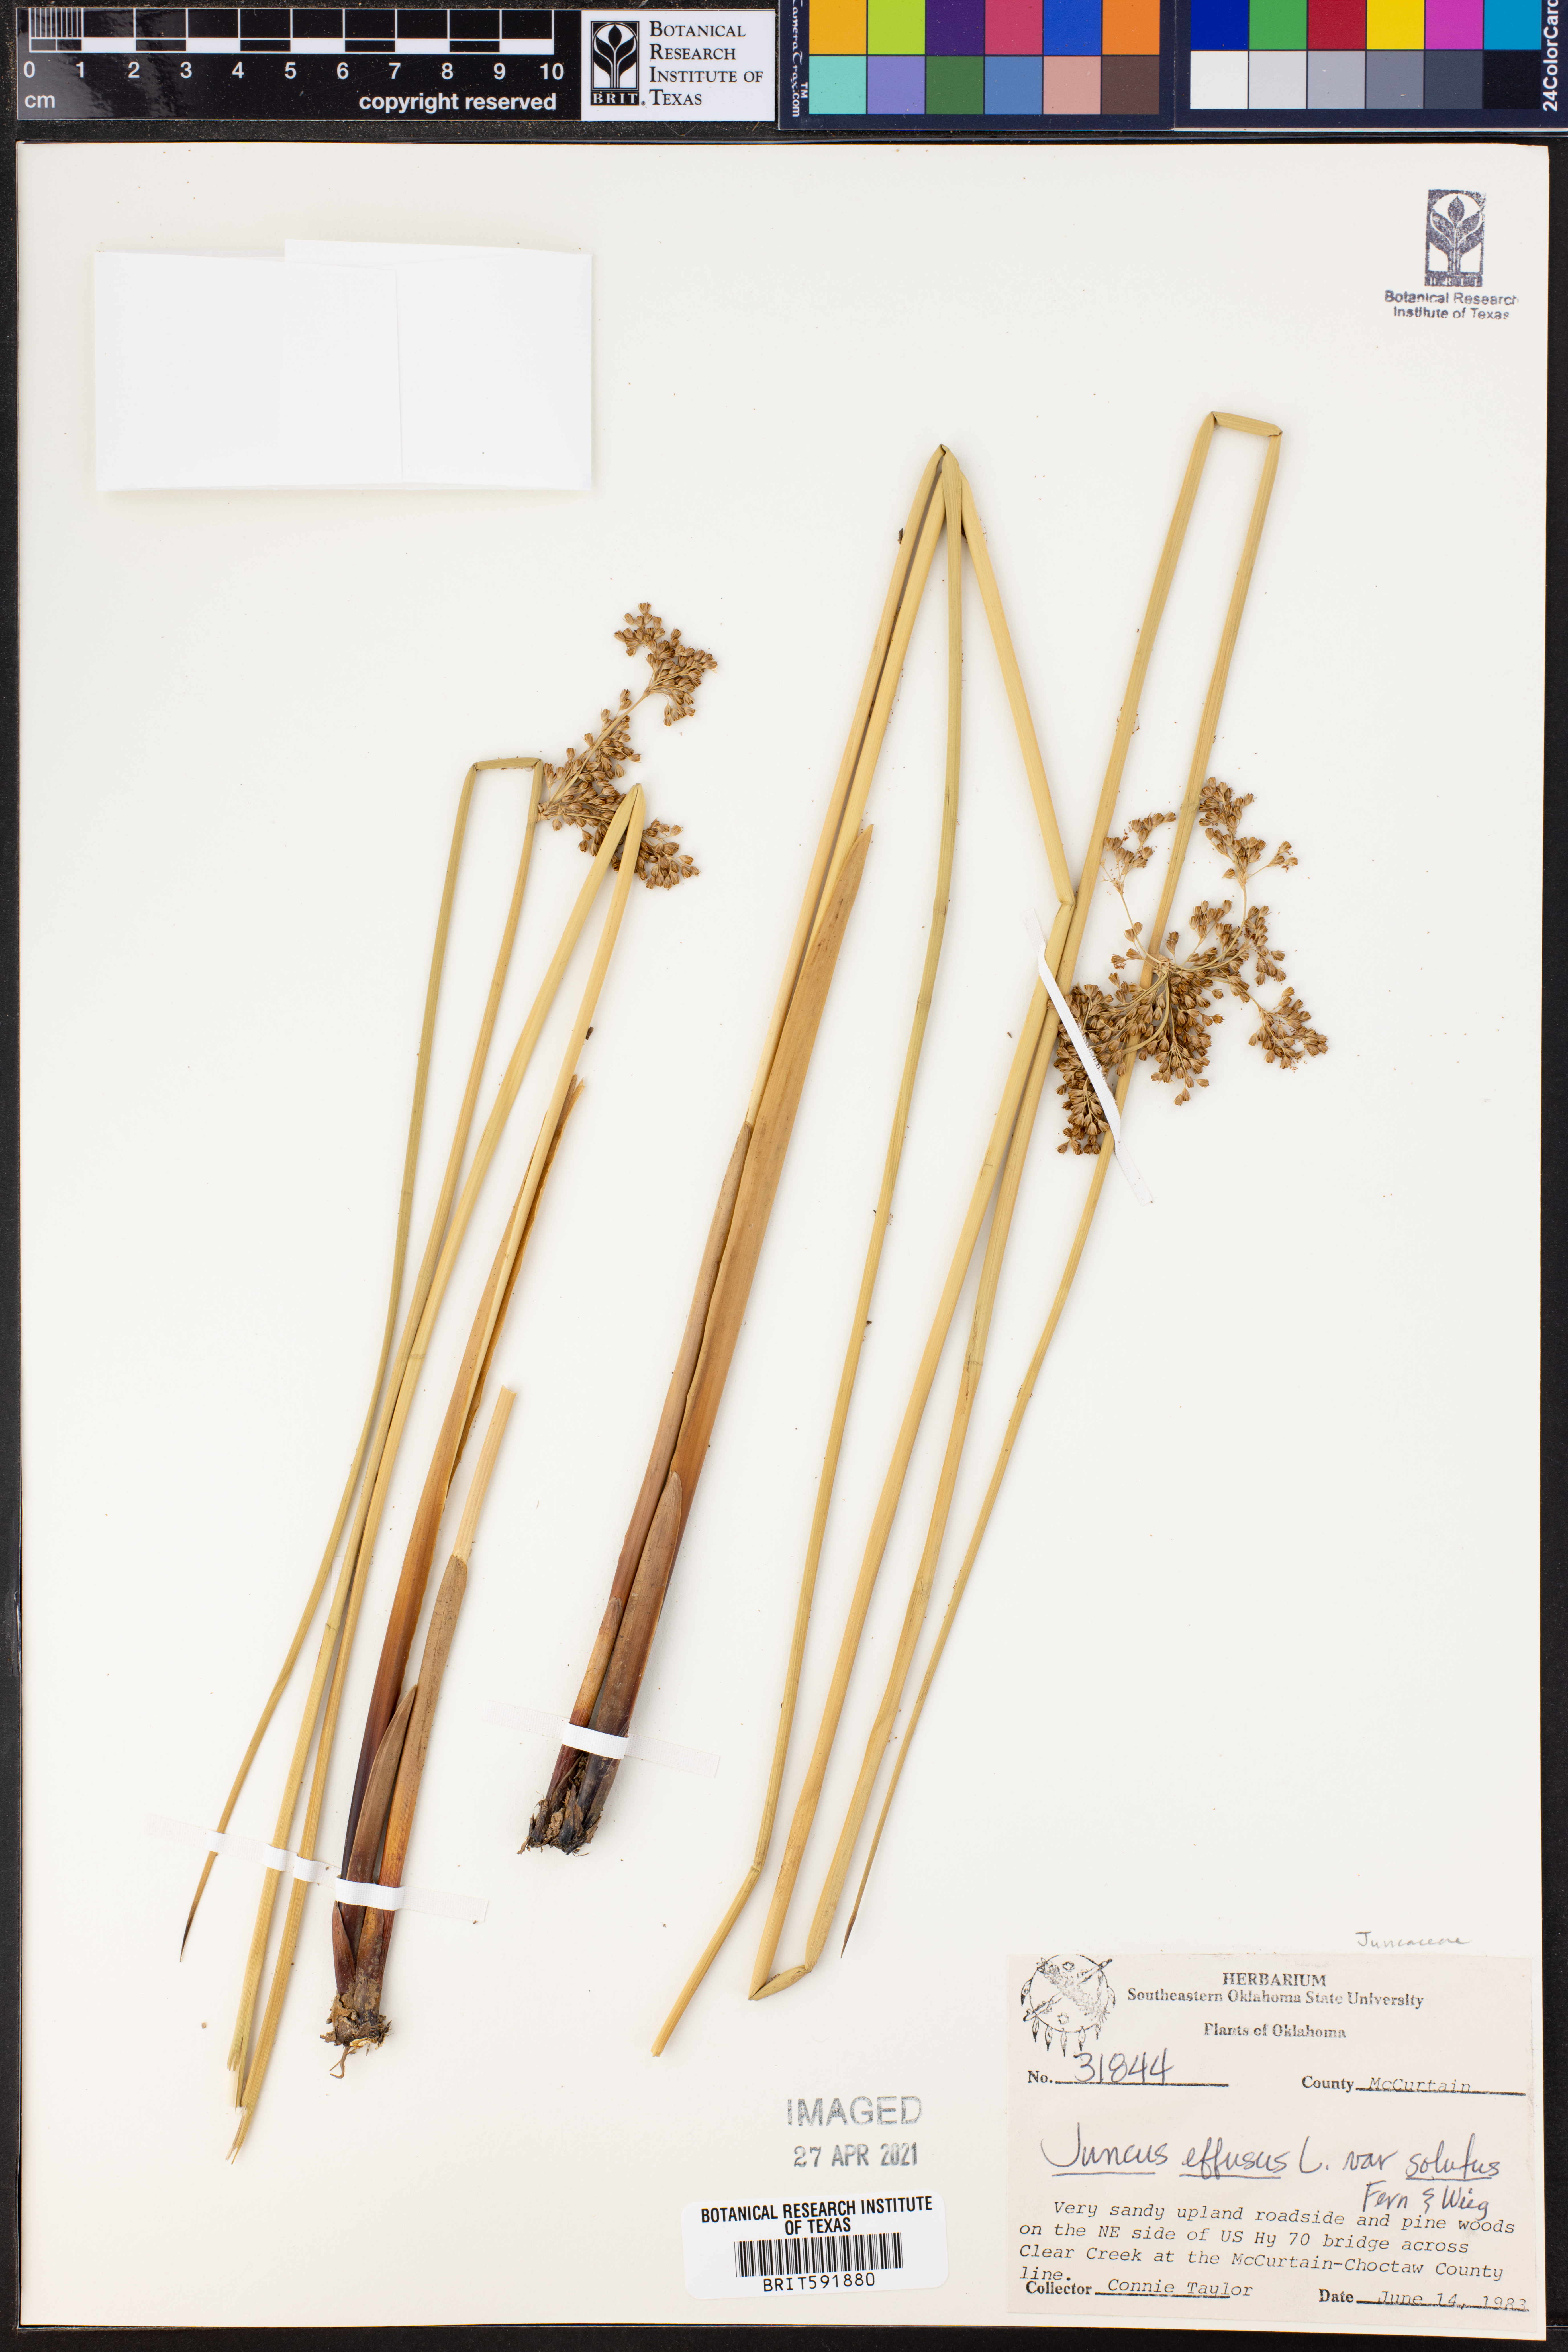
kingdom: Plantae
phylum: Tracheophyta
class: Liliopsida
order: Poales
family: Juncaceae
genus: Juncus
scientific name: Juncus effusus
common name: Soft rush
